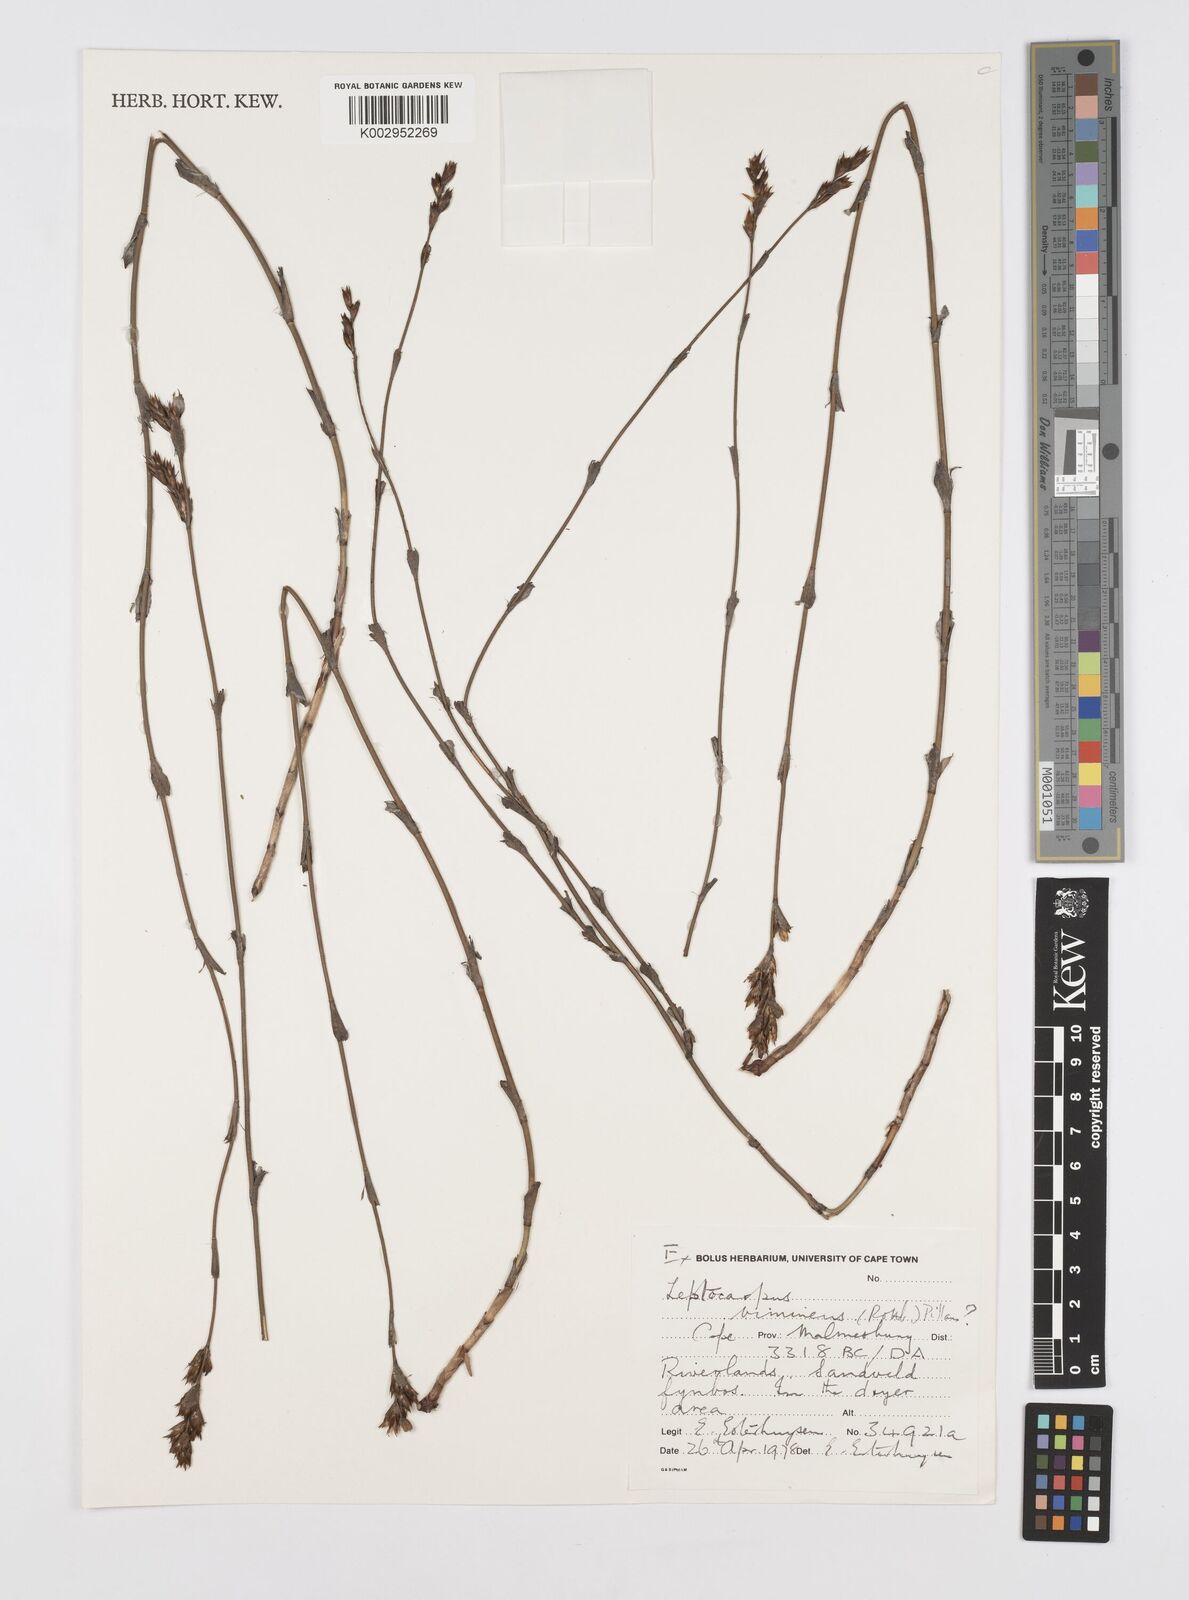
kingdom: Plantae
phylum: Tracheophyta
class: Liliopsida
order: Poales
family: Restionaceae
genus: Restio
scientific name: Restio vimineus
